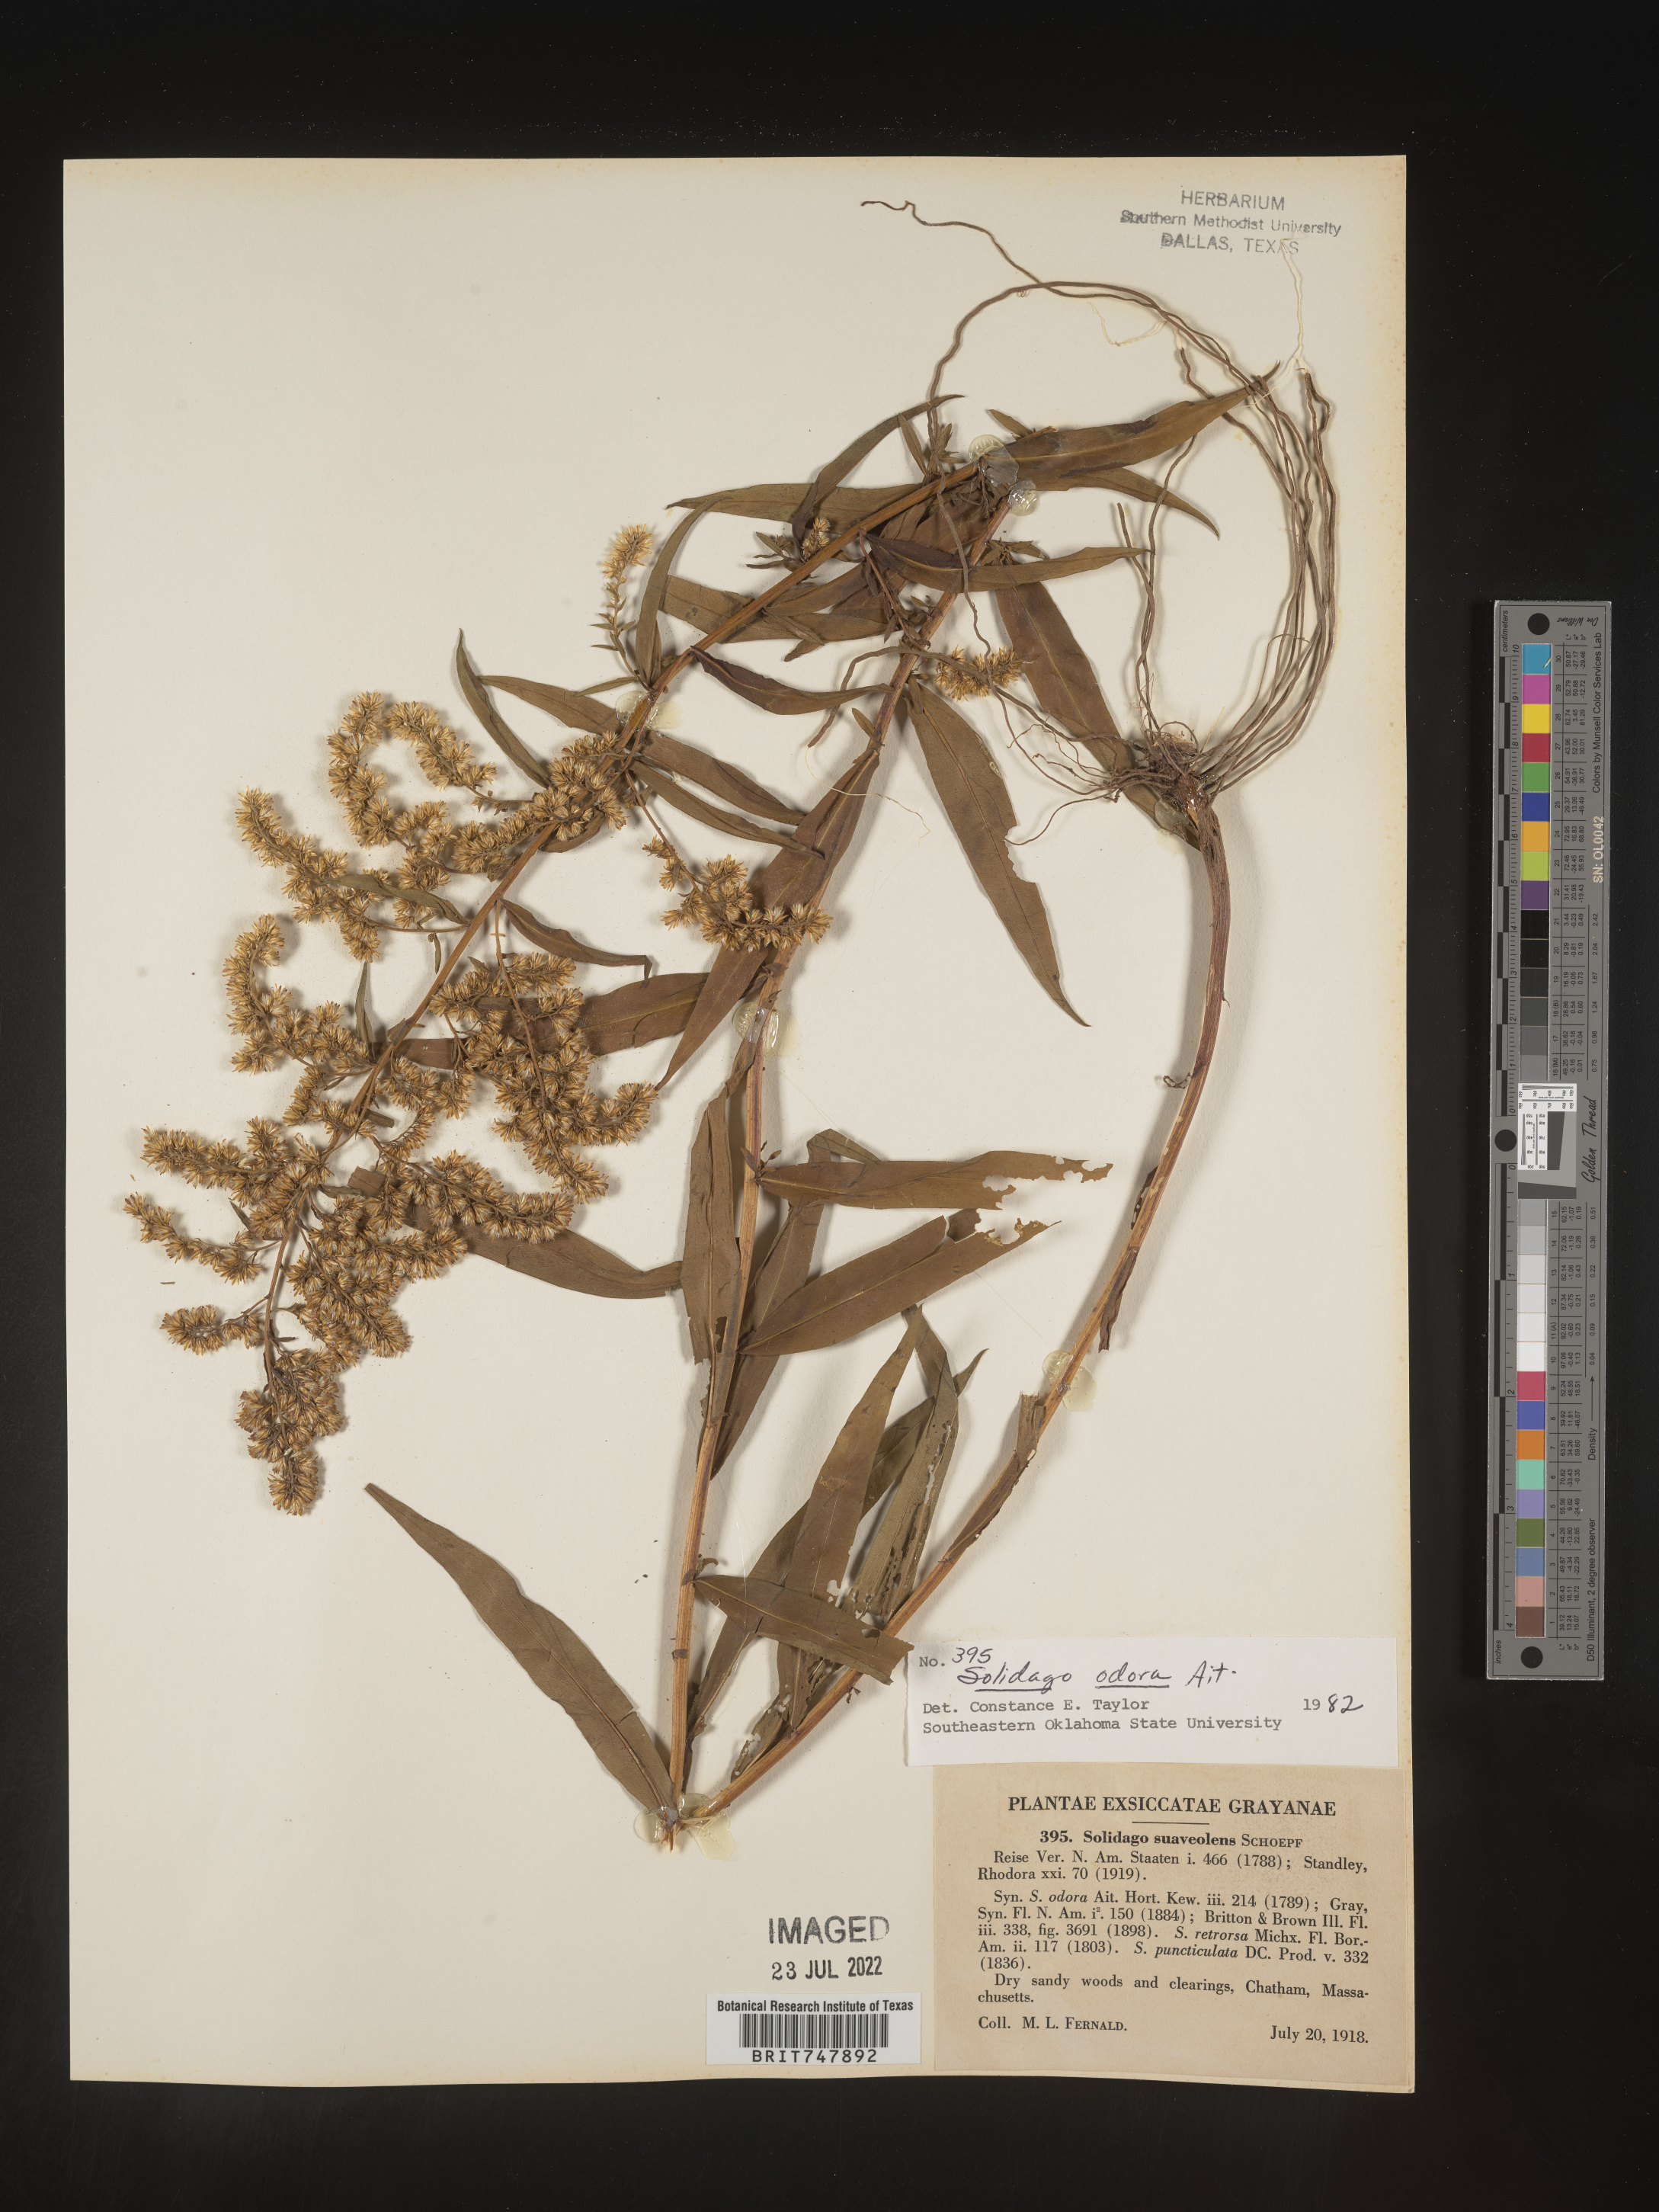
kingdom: Plantae
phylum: Tracheophyta
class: Magnoliopsida
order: Asterales
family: Asteraceae
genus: Solidago
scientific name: Solidago odora
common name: Anise-scented goldenrod
